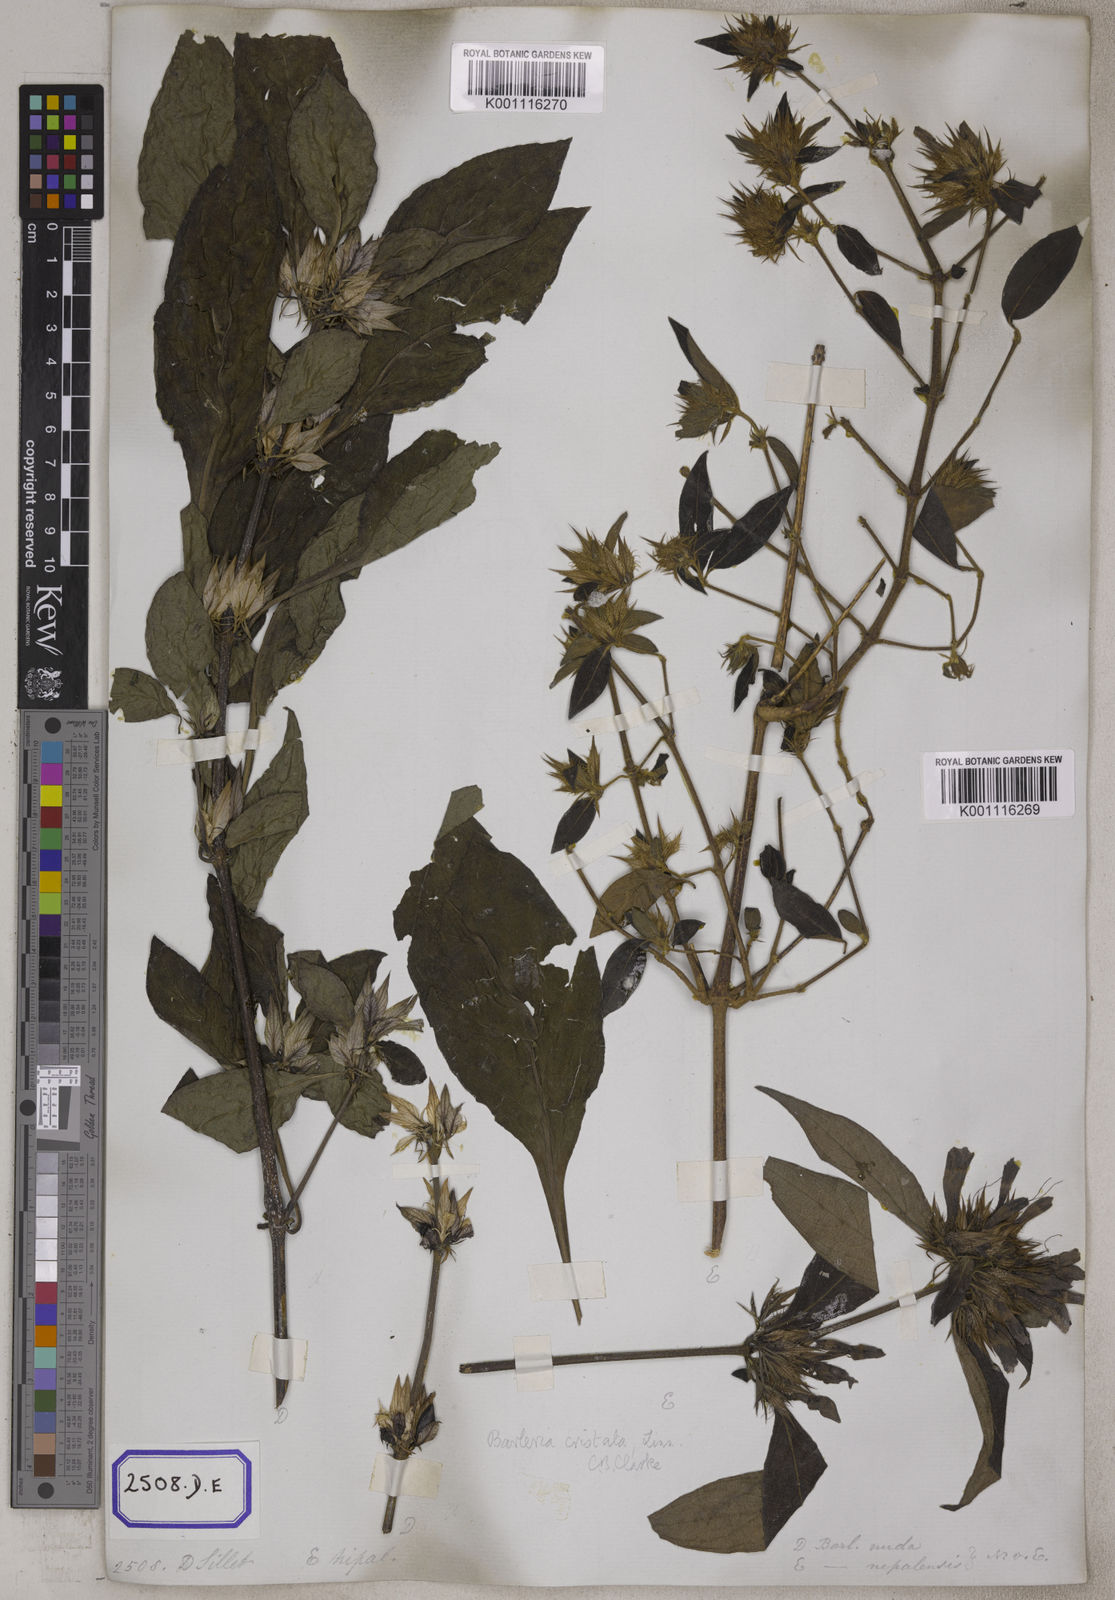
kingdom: Plantae
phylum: Tracheophyta
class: Magnoliopsida
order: Lamiales
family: Acanthaceae
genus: Barleria
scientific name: Barleria cristata
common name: Crested philippine violet
